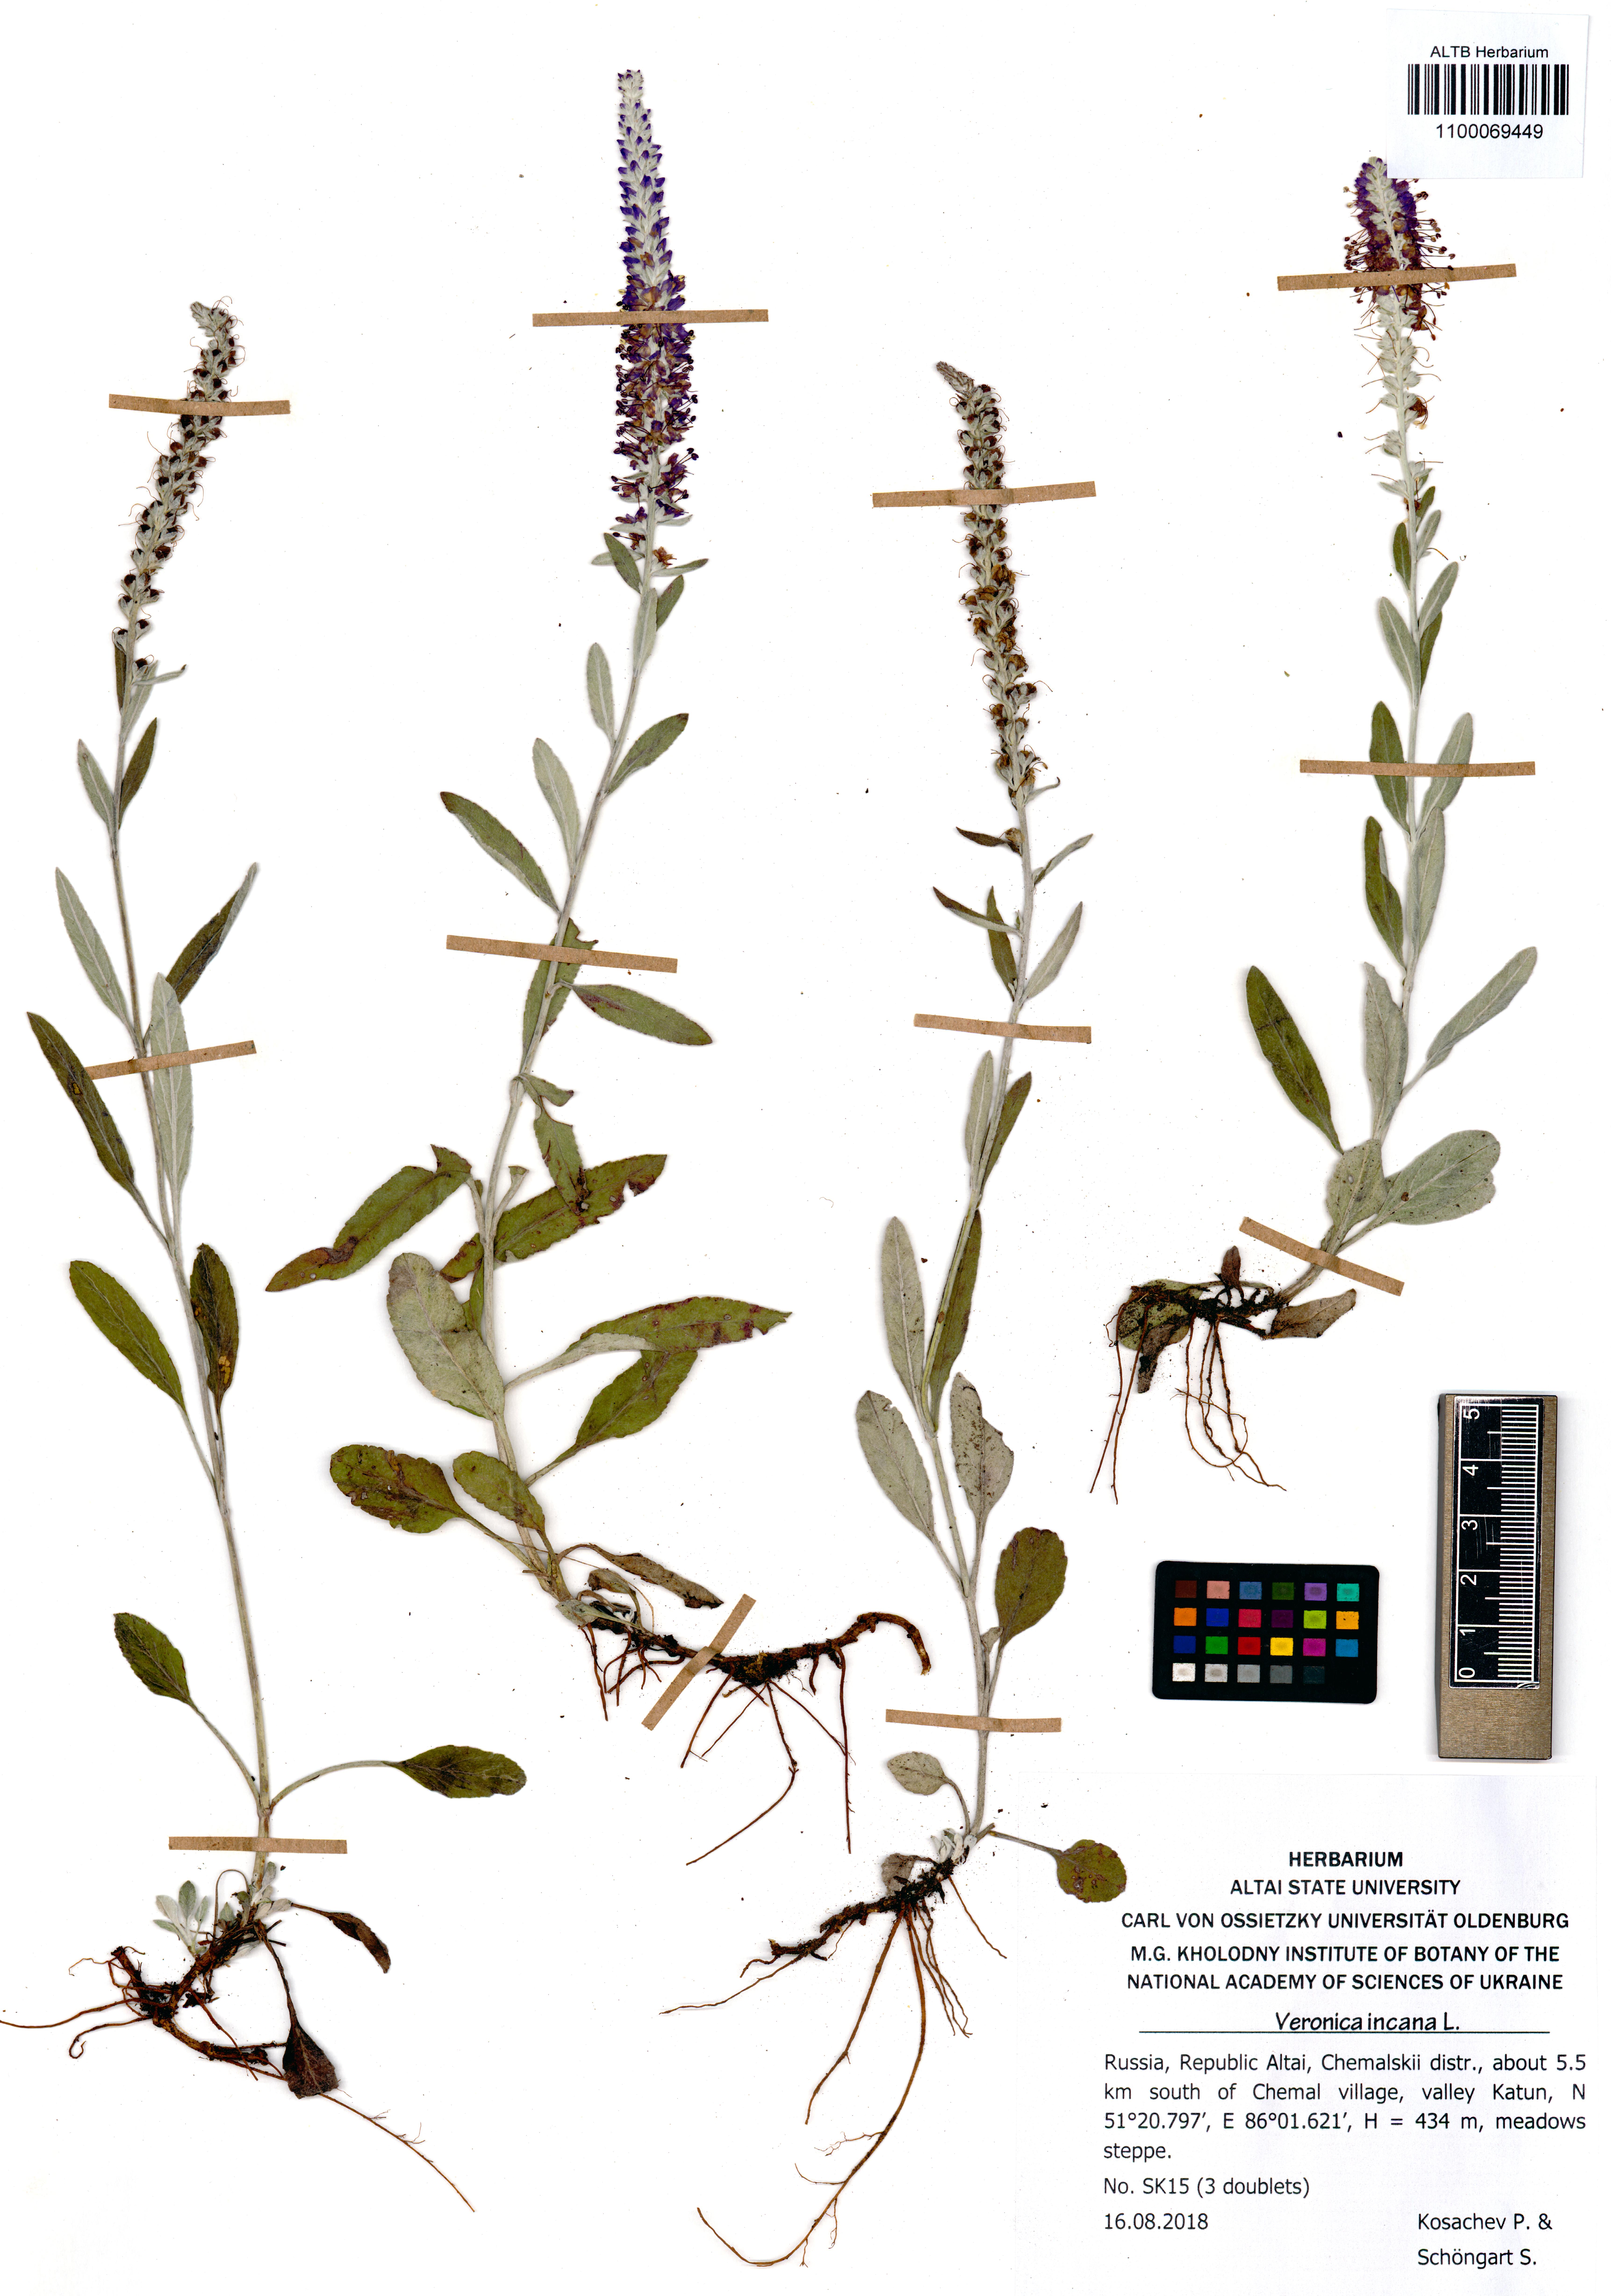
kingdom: Plantae
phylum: Tracheophyta
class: Magnoliopsida
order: Lamiales
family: Plantaginaceae
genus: Veronica
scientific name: Veronica incana
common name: Silver speedwell
